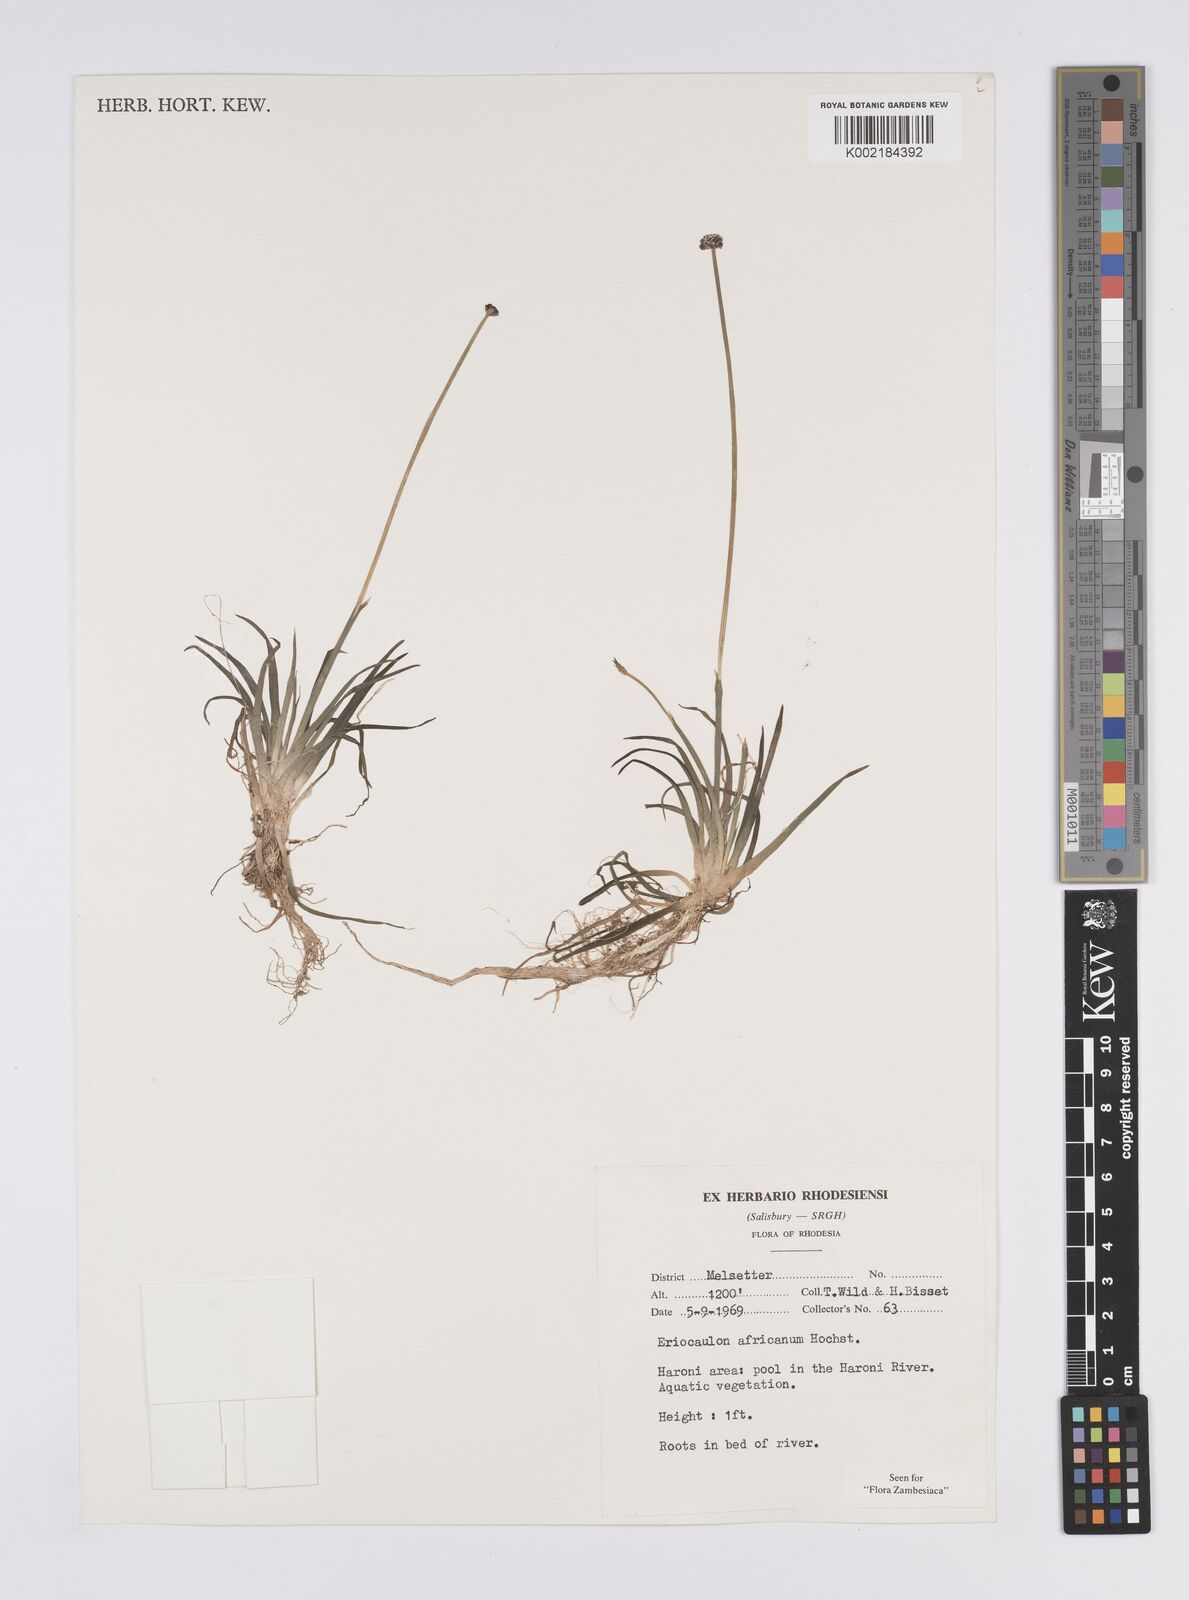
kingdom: Plantae
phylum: Tracheophyta
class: Liliopsida
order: Poales
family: Eriocaulaceae
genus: Eriocaulon
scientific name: Eriocaulon africanum
